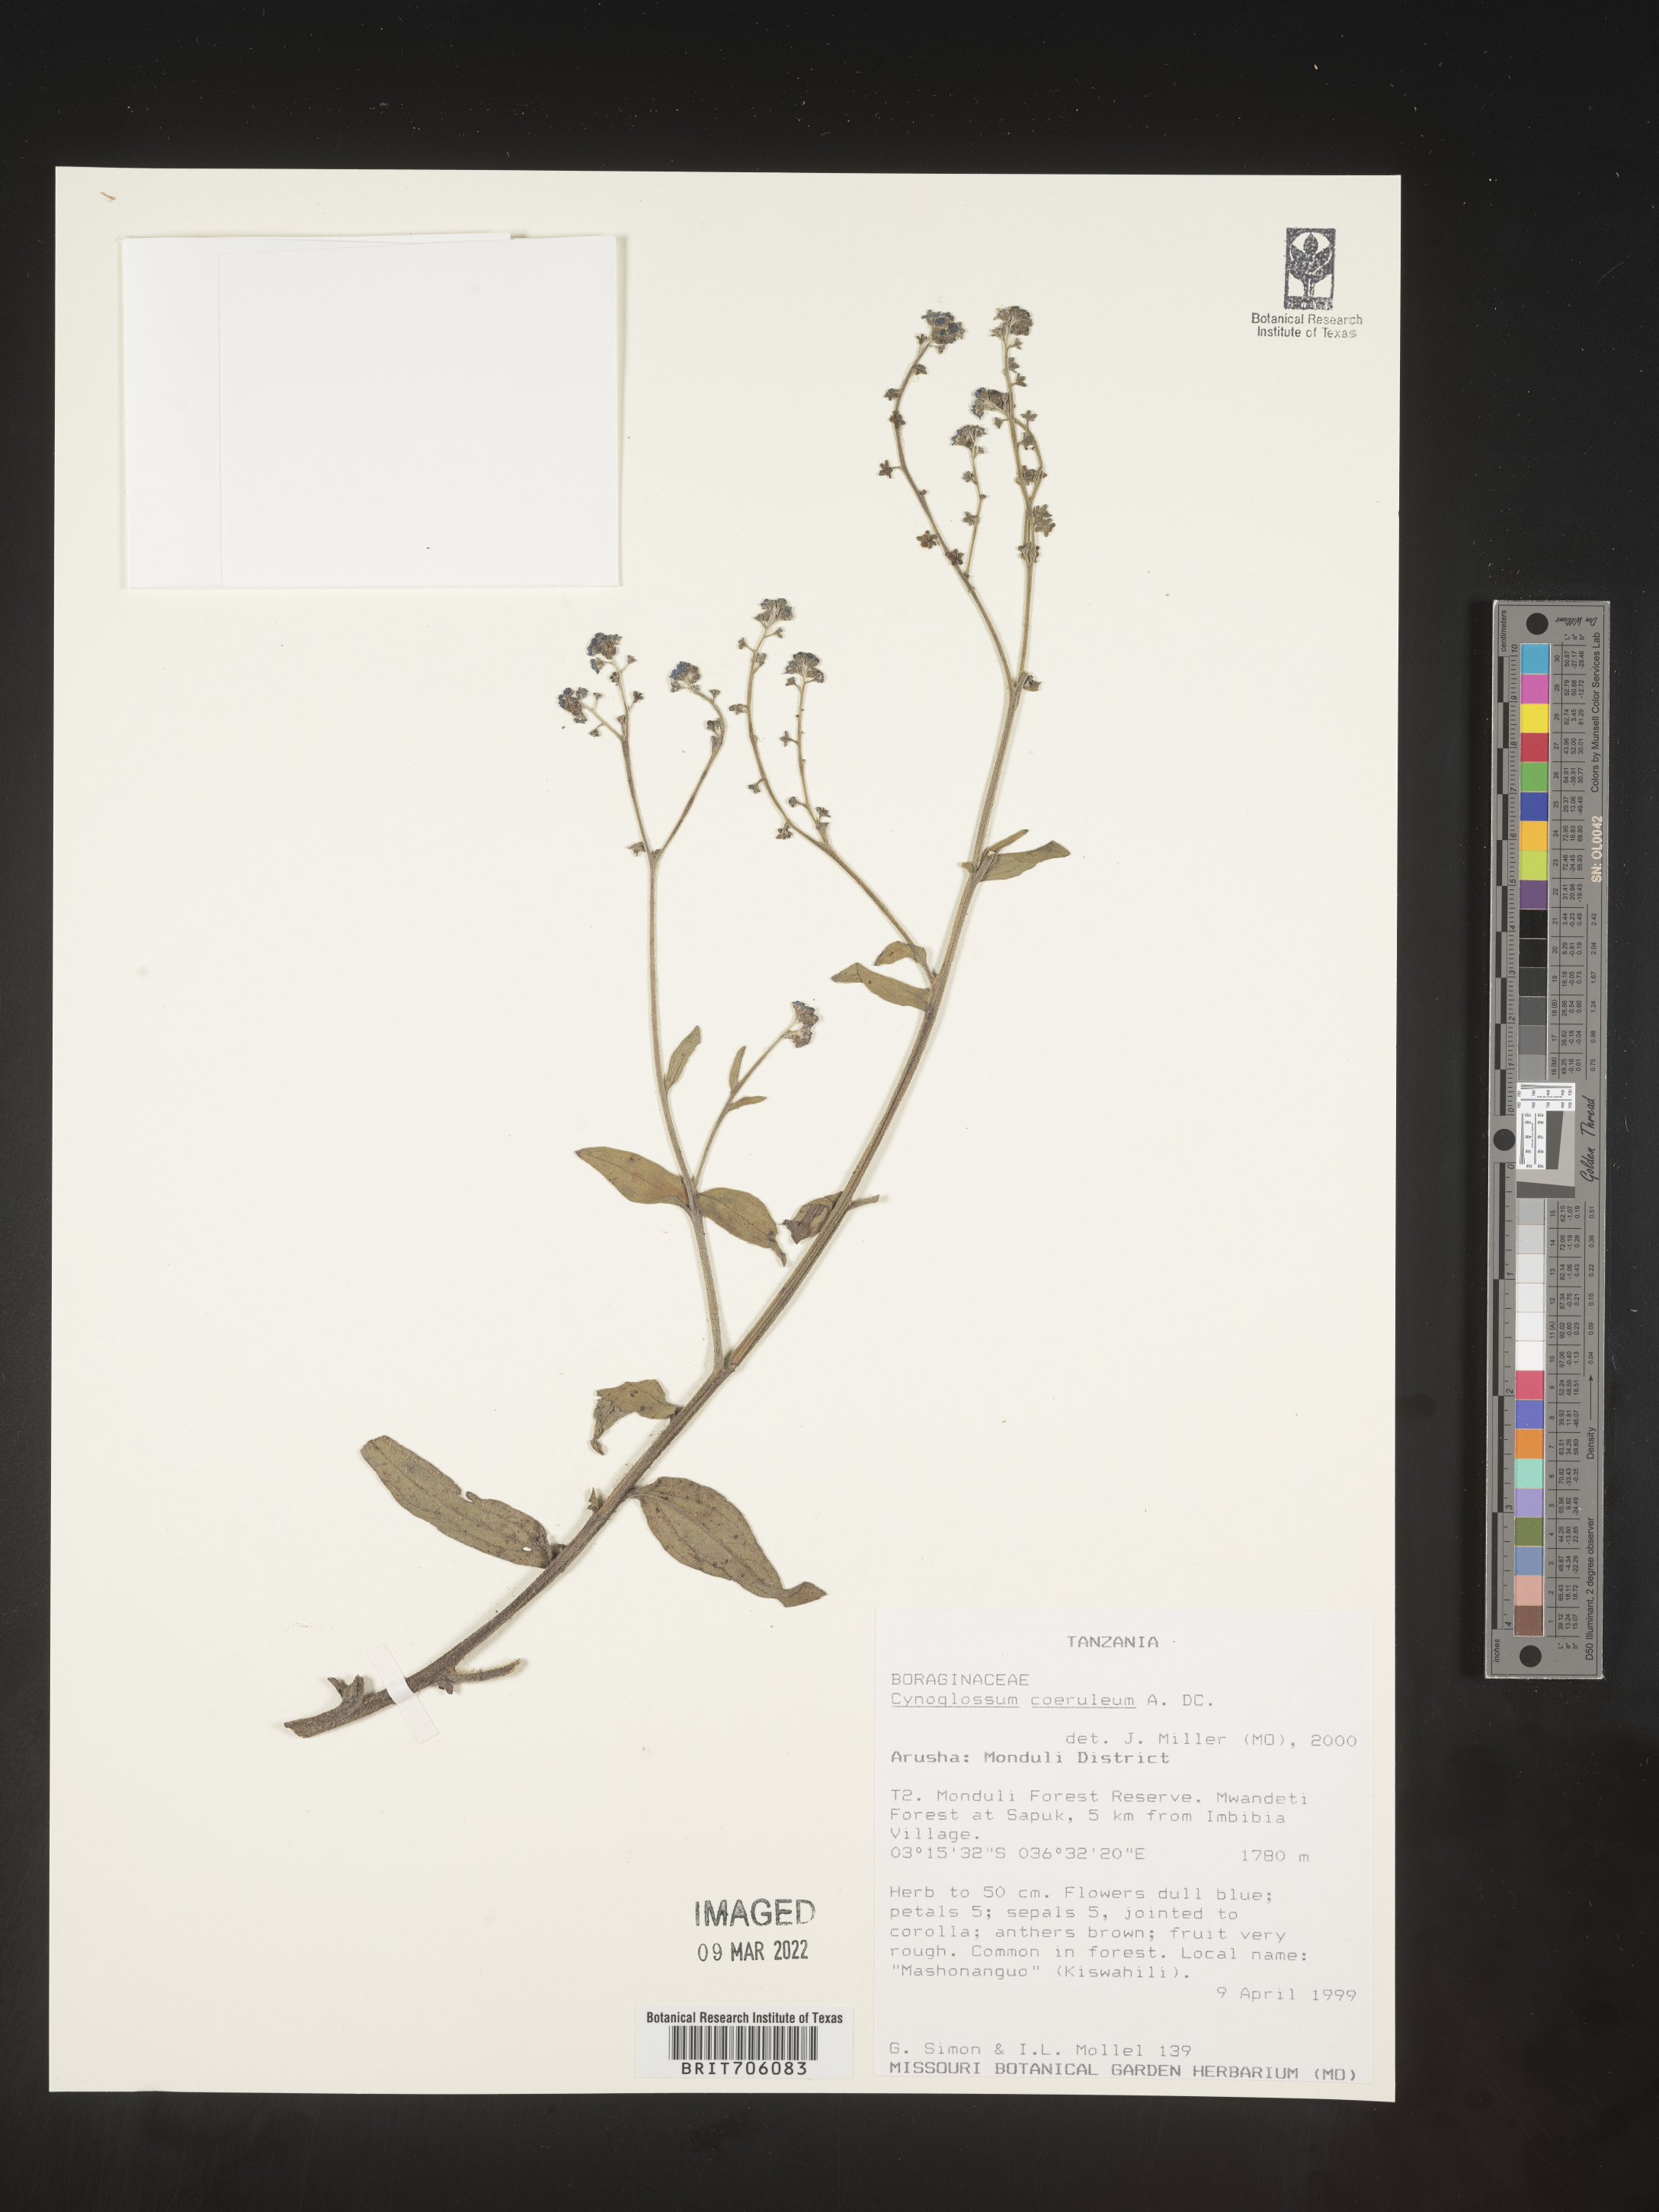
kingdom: Plantae
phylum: Tracheophyta
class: Magnoliopsida
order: Boraginales
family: Boraginaceae
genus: Cynoglossum
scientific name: Cynoglossum
